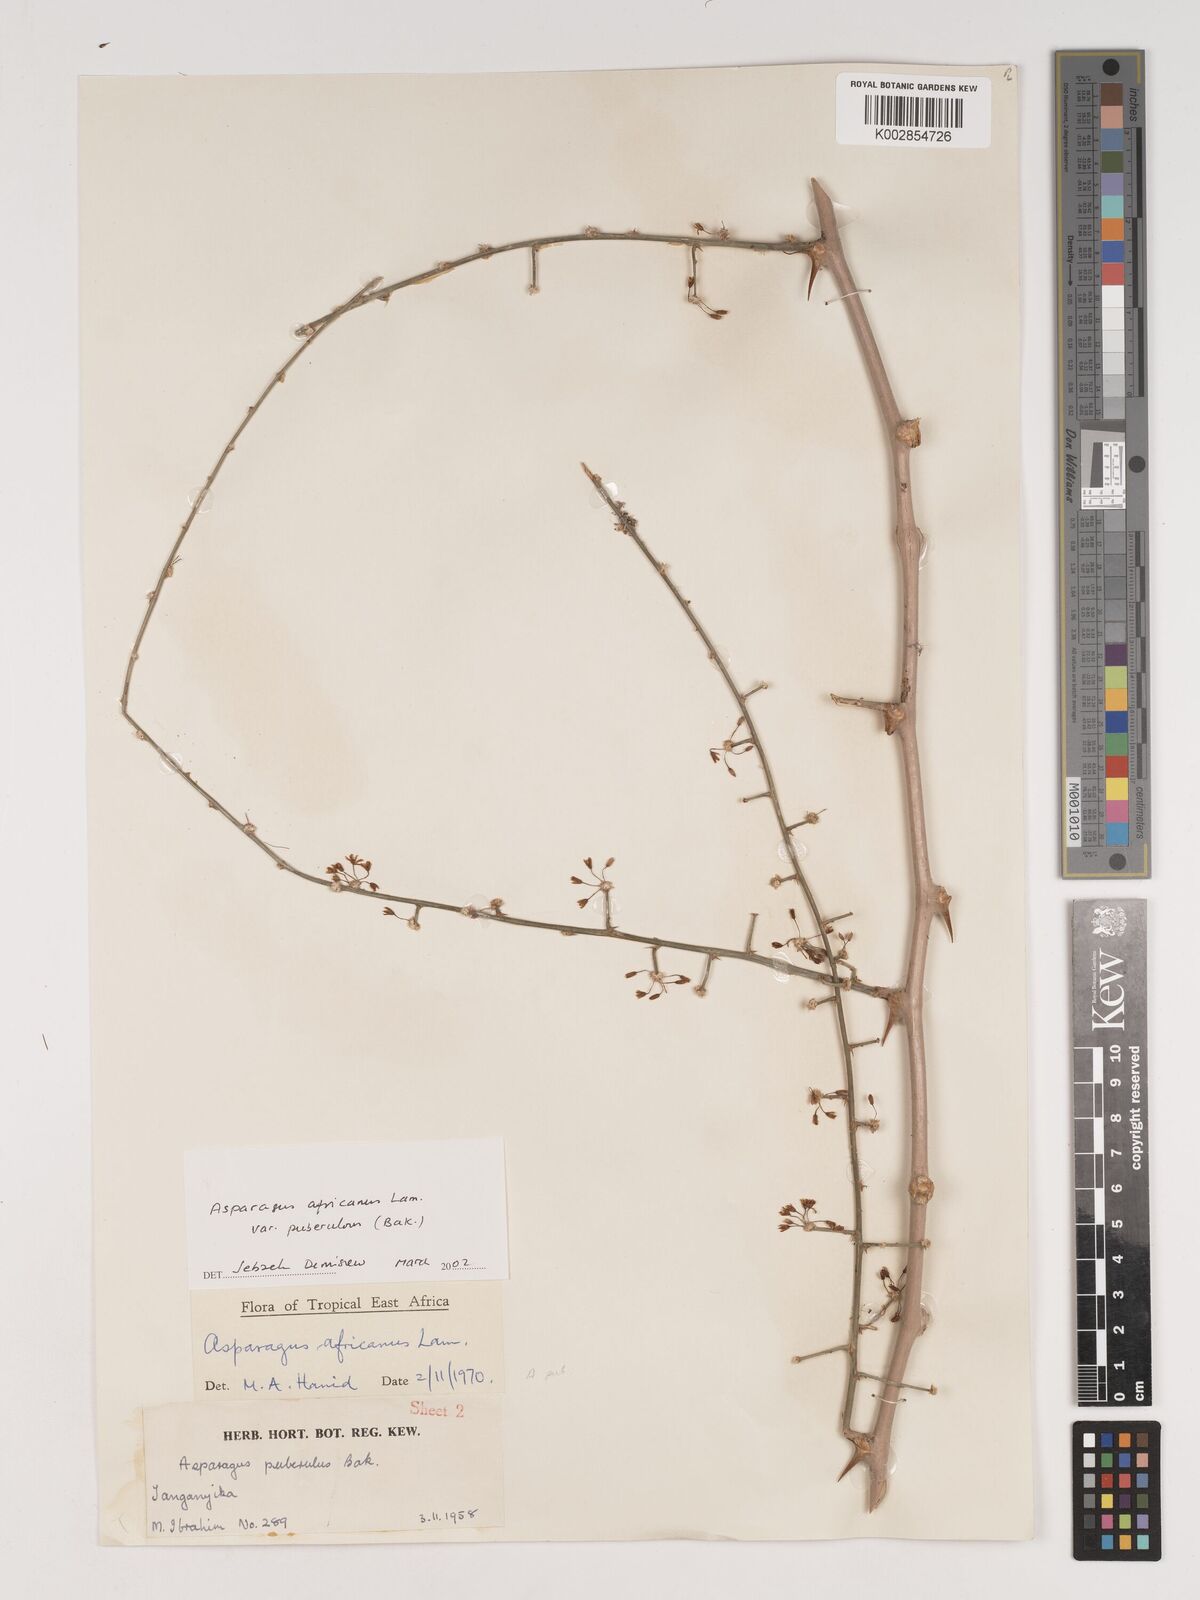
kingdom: Plantae
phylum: Tracheophyta
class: Liliopsida
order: Asparagales
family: Asparagaceae
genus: Asparagus
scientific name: Asparagus africanus
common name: Asparagus-fern
